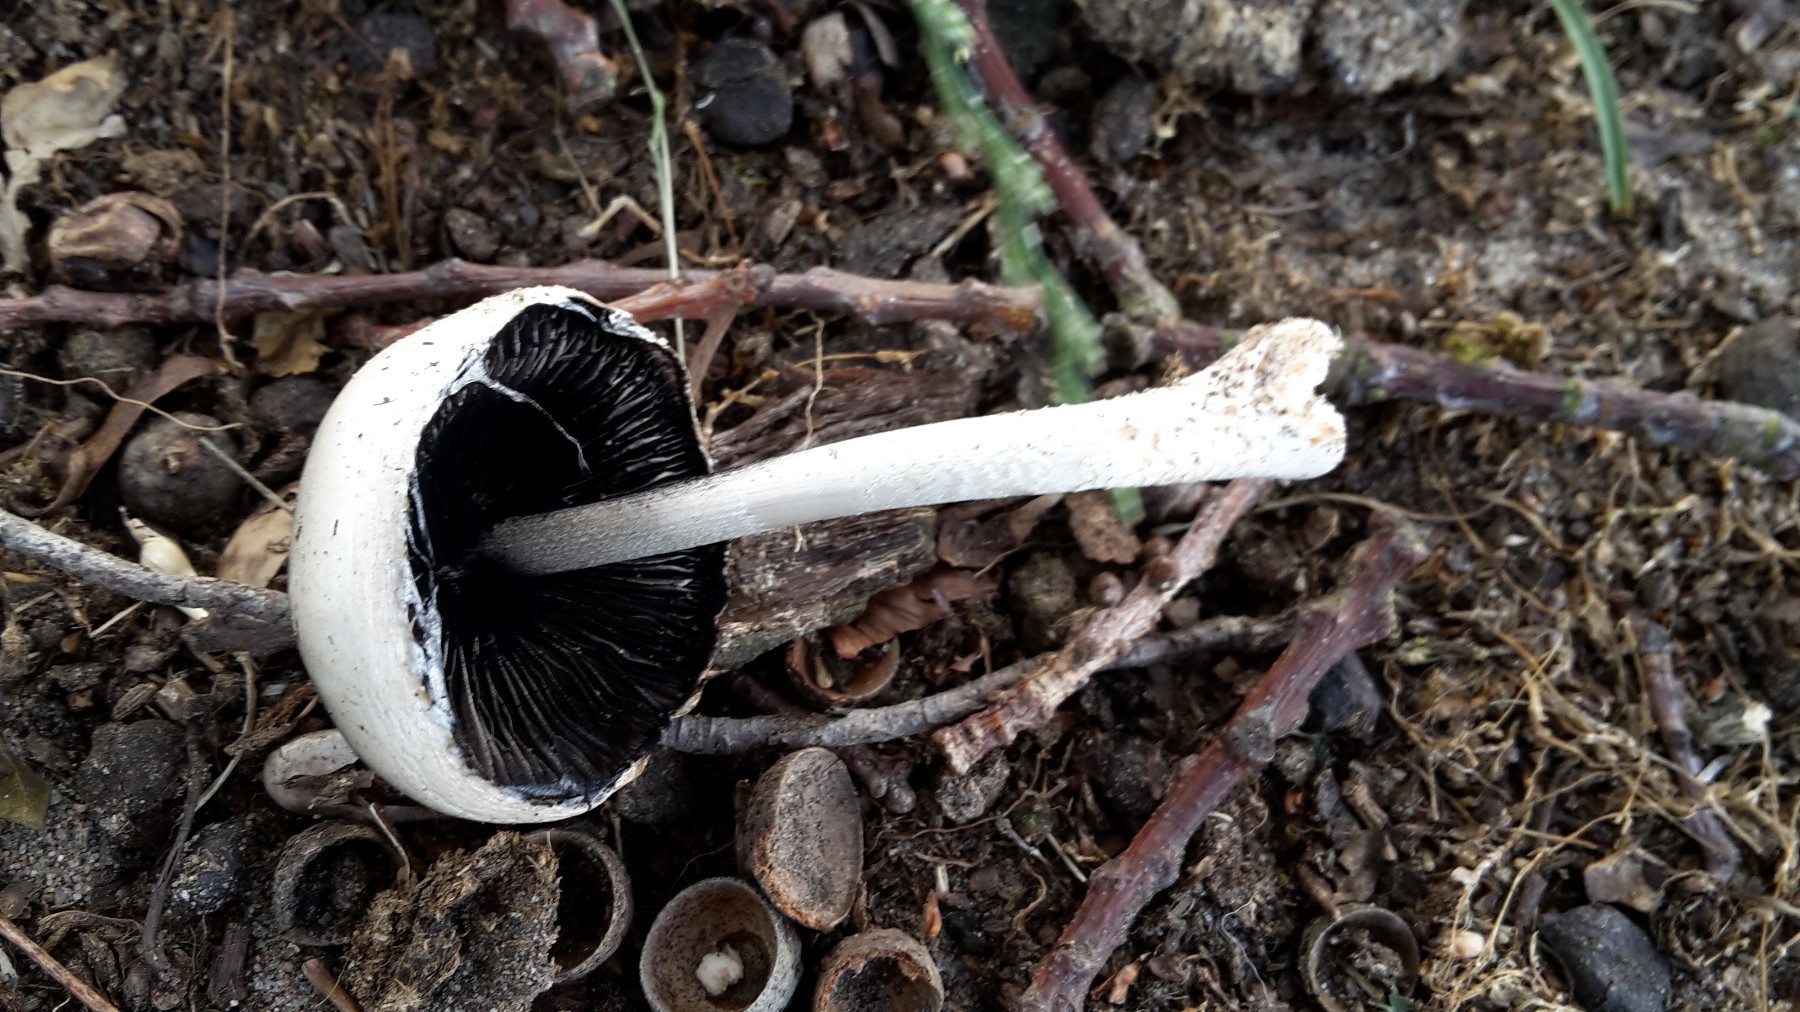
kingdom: Fungi
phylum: Basidiomycota
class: Agaricomycetes
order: Agaricales
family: Bolbitiaceae
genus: Panaeolus
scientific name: Panaeolus semiovatus
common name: ring-glanshat
